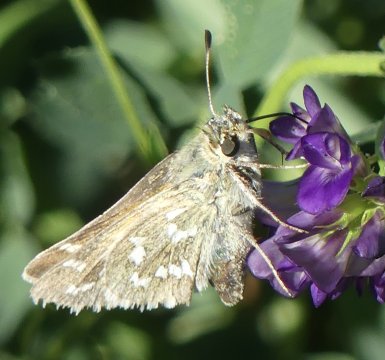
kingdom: Animalia
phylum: Arthropoda
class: Insecta
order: Lepidoptera
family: Hesperiidae
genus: Hesperia
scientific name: Hesperia comma
